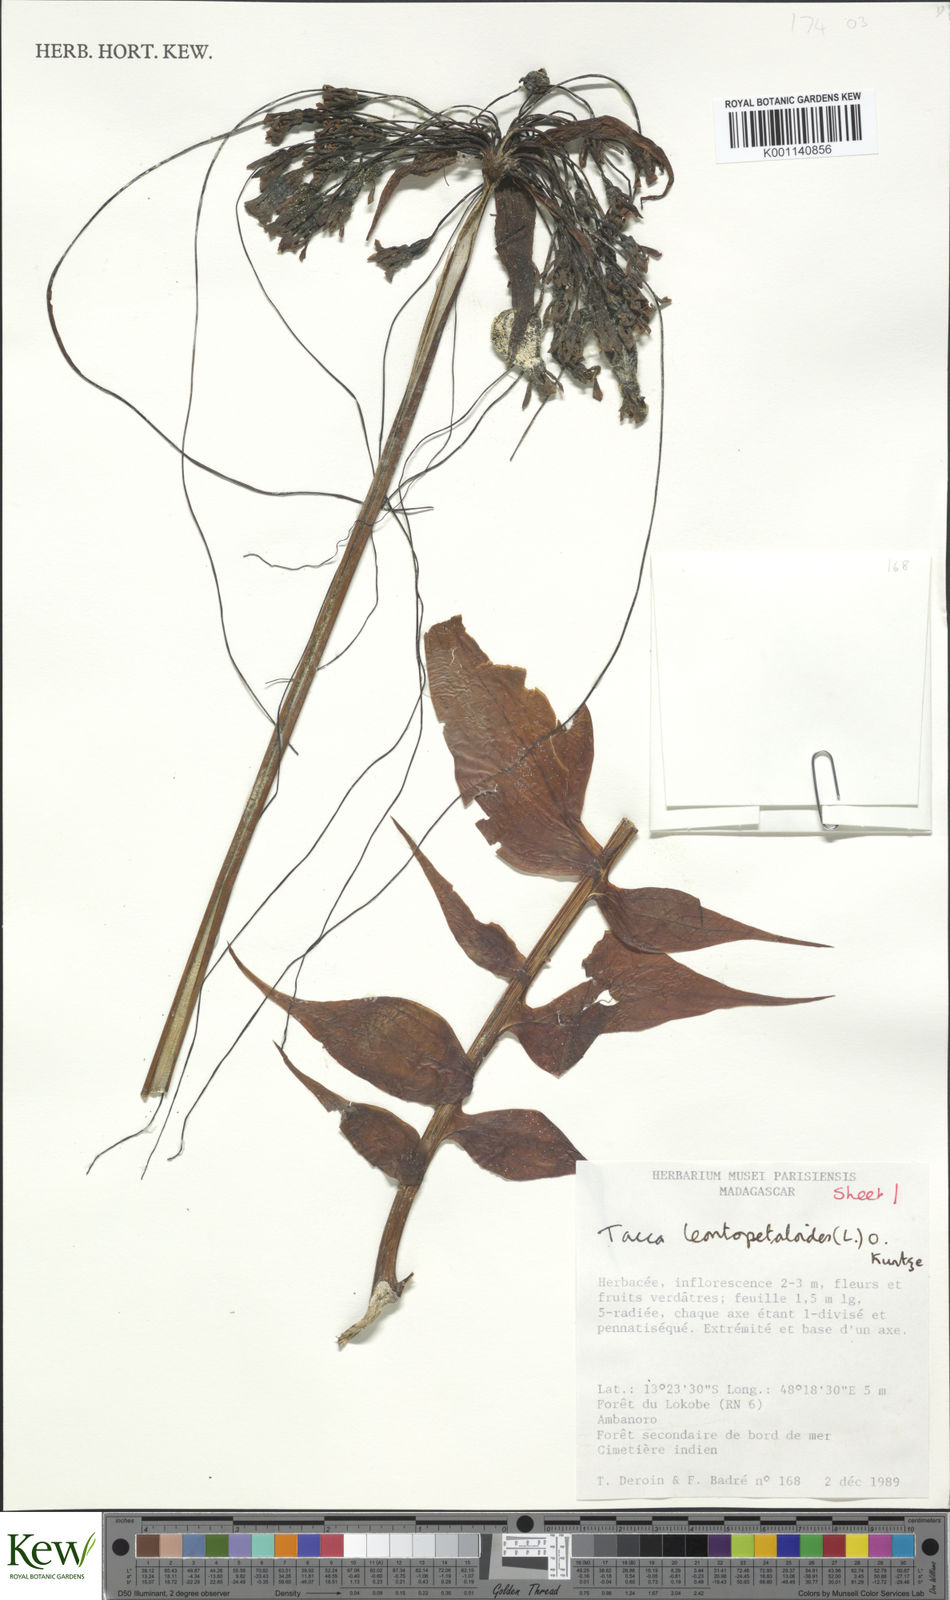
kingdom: Plantae
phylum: Tracheophyta
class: Liliopsida
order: Dioscoreales
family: Dioscoreaceae
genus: Tacca
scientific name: Tacca
